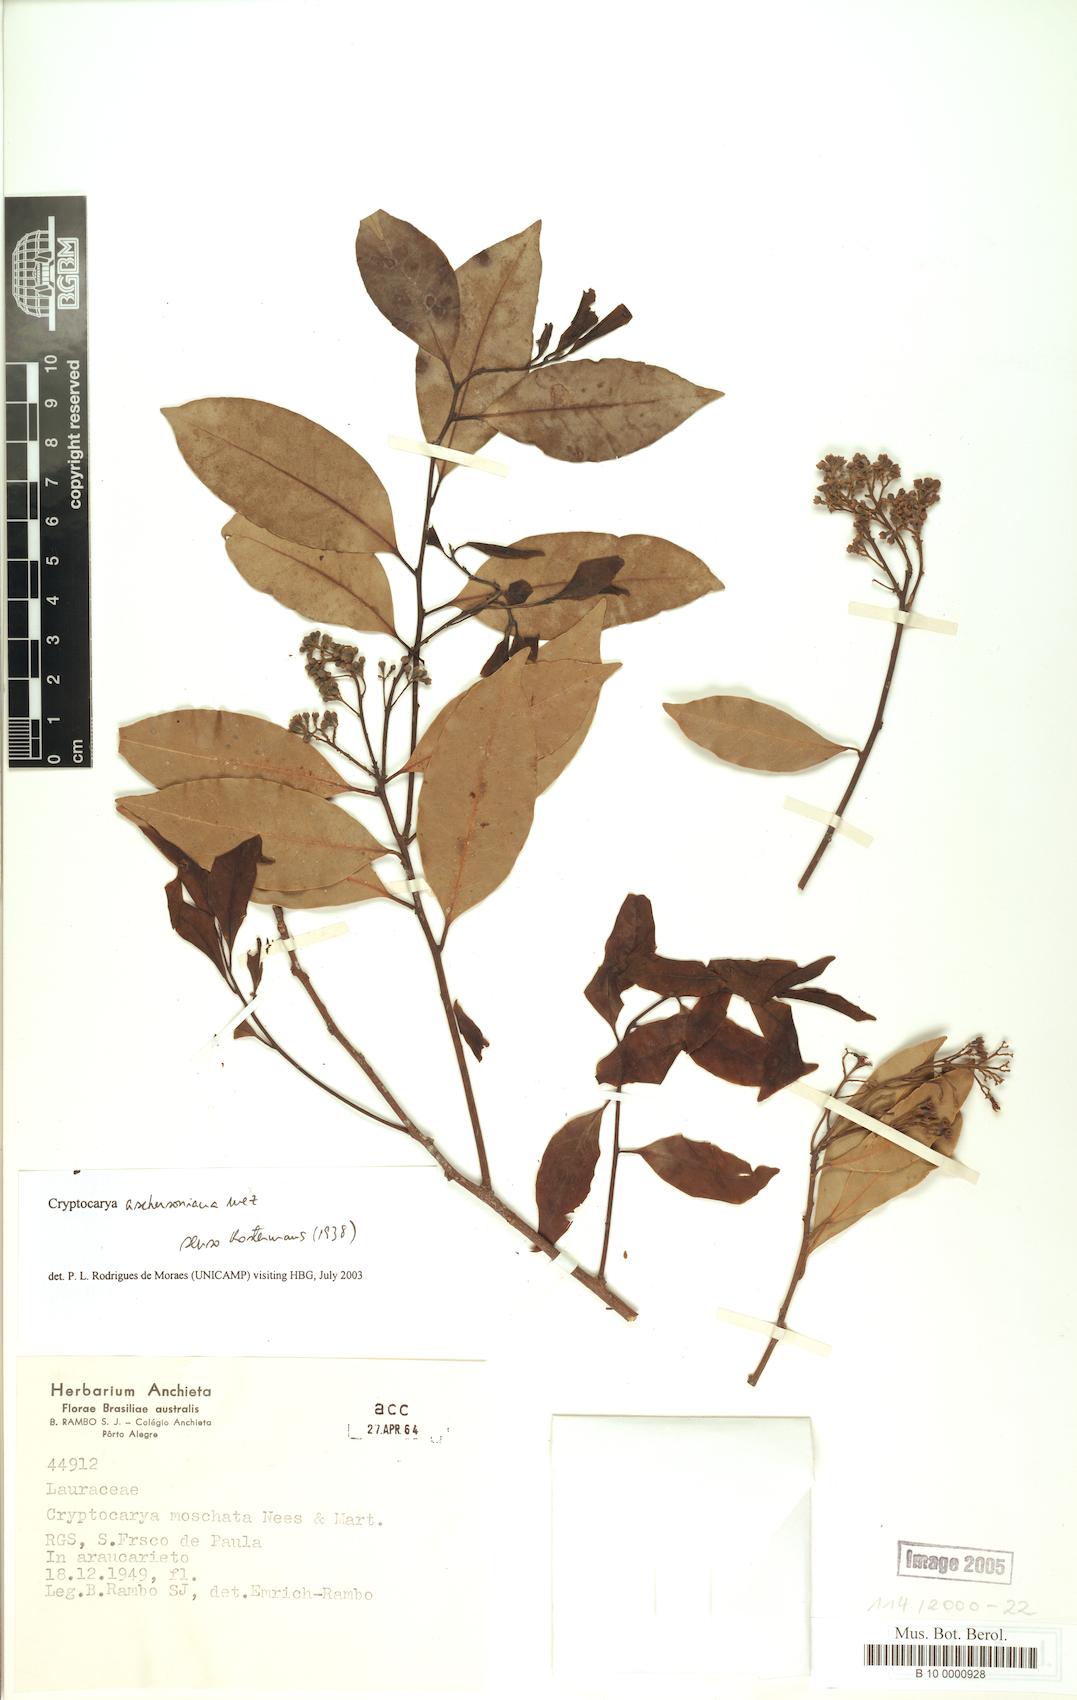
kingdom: Plantae
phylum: Tracheophyta
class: Magnoliopsida
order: Laurales
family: Lauraceae
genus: Cryptocarya
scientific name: Cryptocarya aschersoniana
